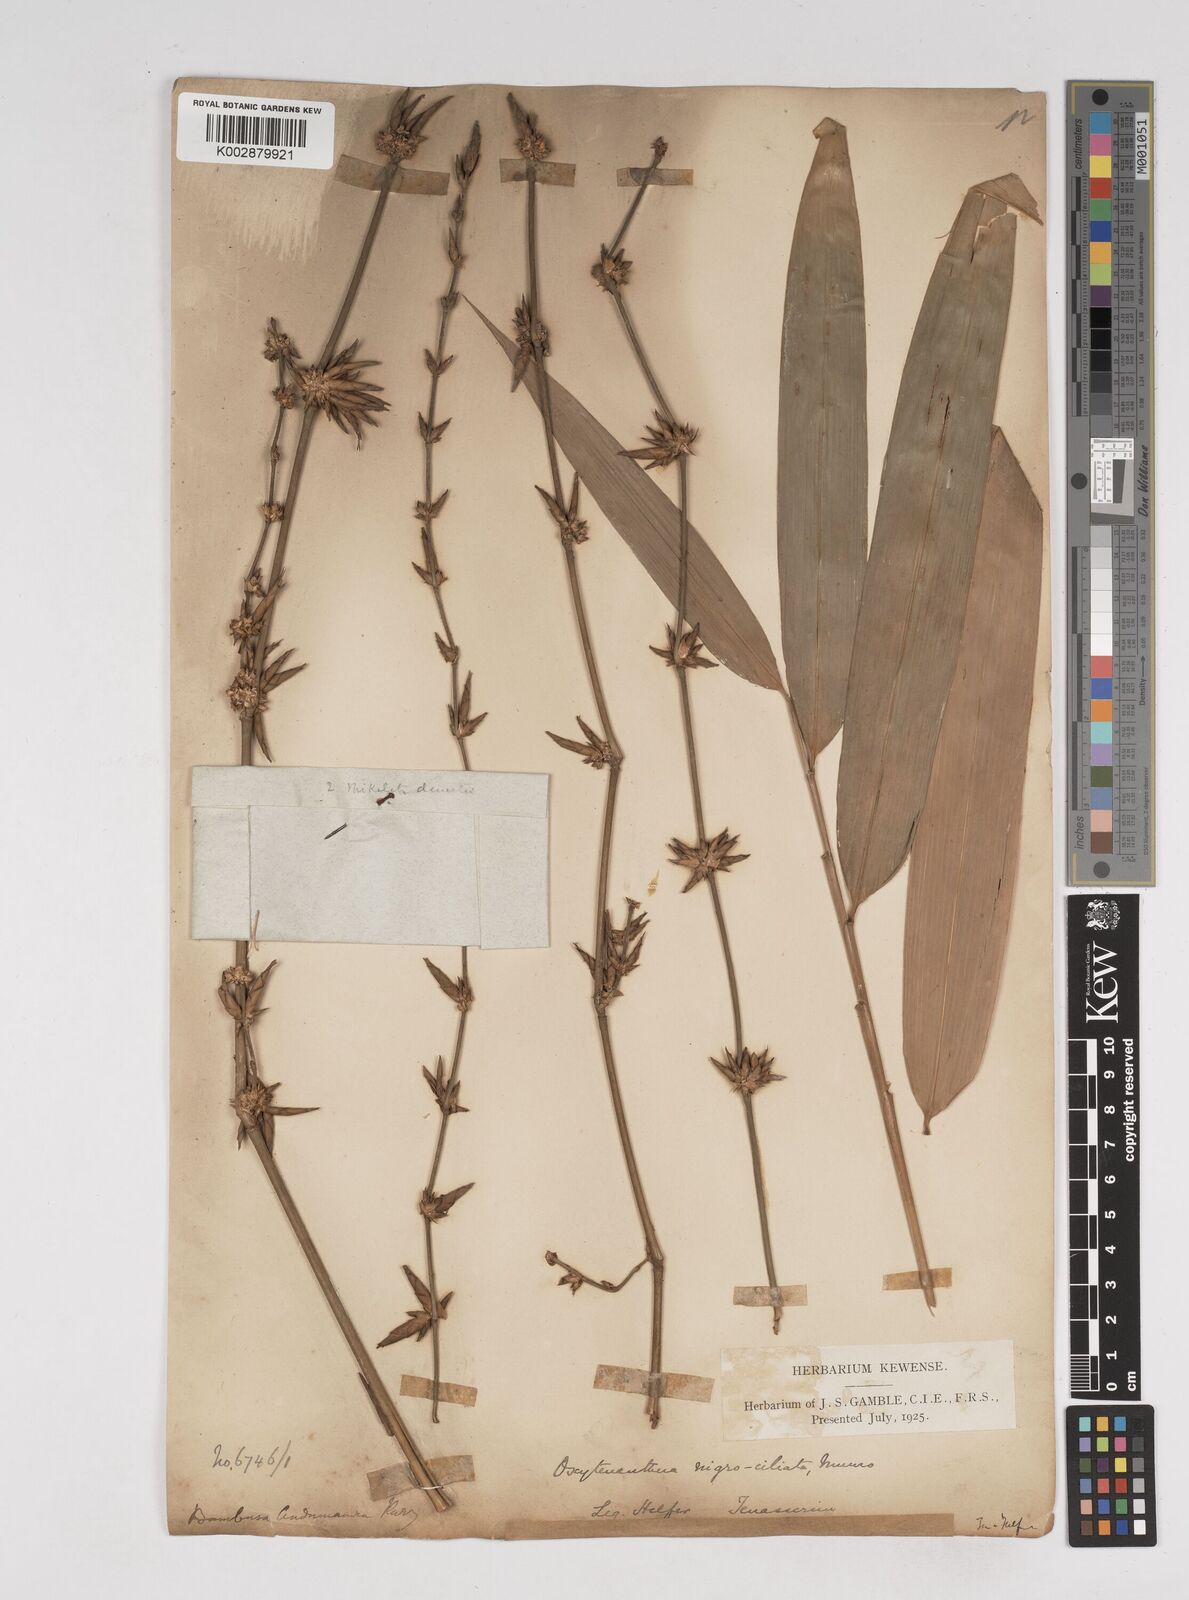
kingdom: Plantae
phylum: Tracheophyta
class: Liliopsida
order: Poales
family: Poaceae
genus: Gigantochloa
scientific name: Gigantochloa nigrociliata
